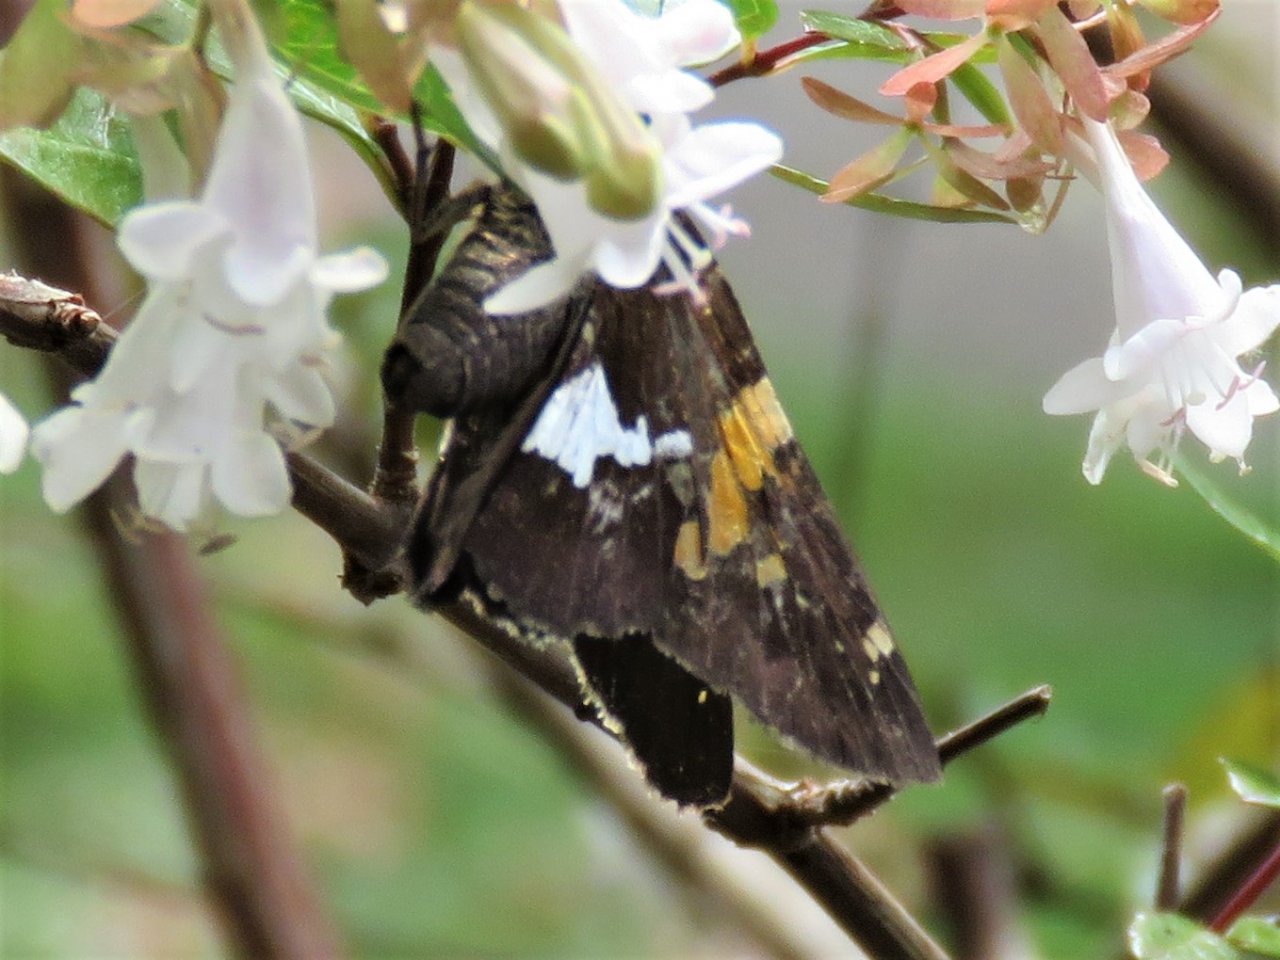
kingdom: Animalia
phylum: Arthropoda
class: Insecta
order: Lepidoptera
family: Hesperiidae
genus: Epargyreus
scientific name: Epargyreus clarus
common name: Silver-spotted Skipper
